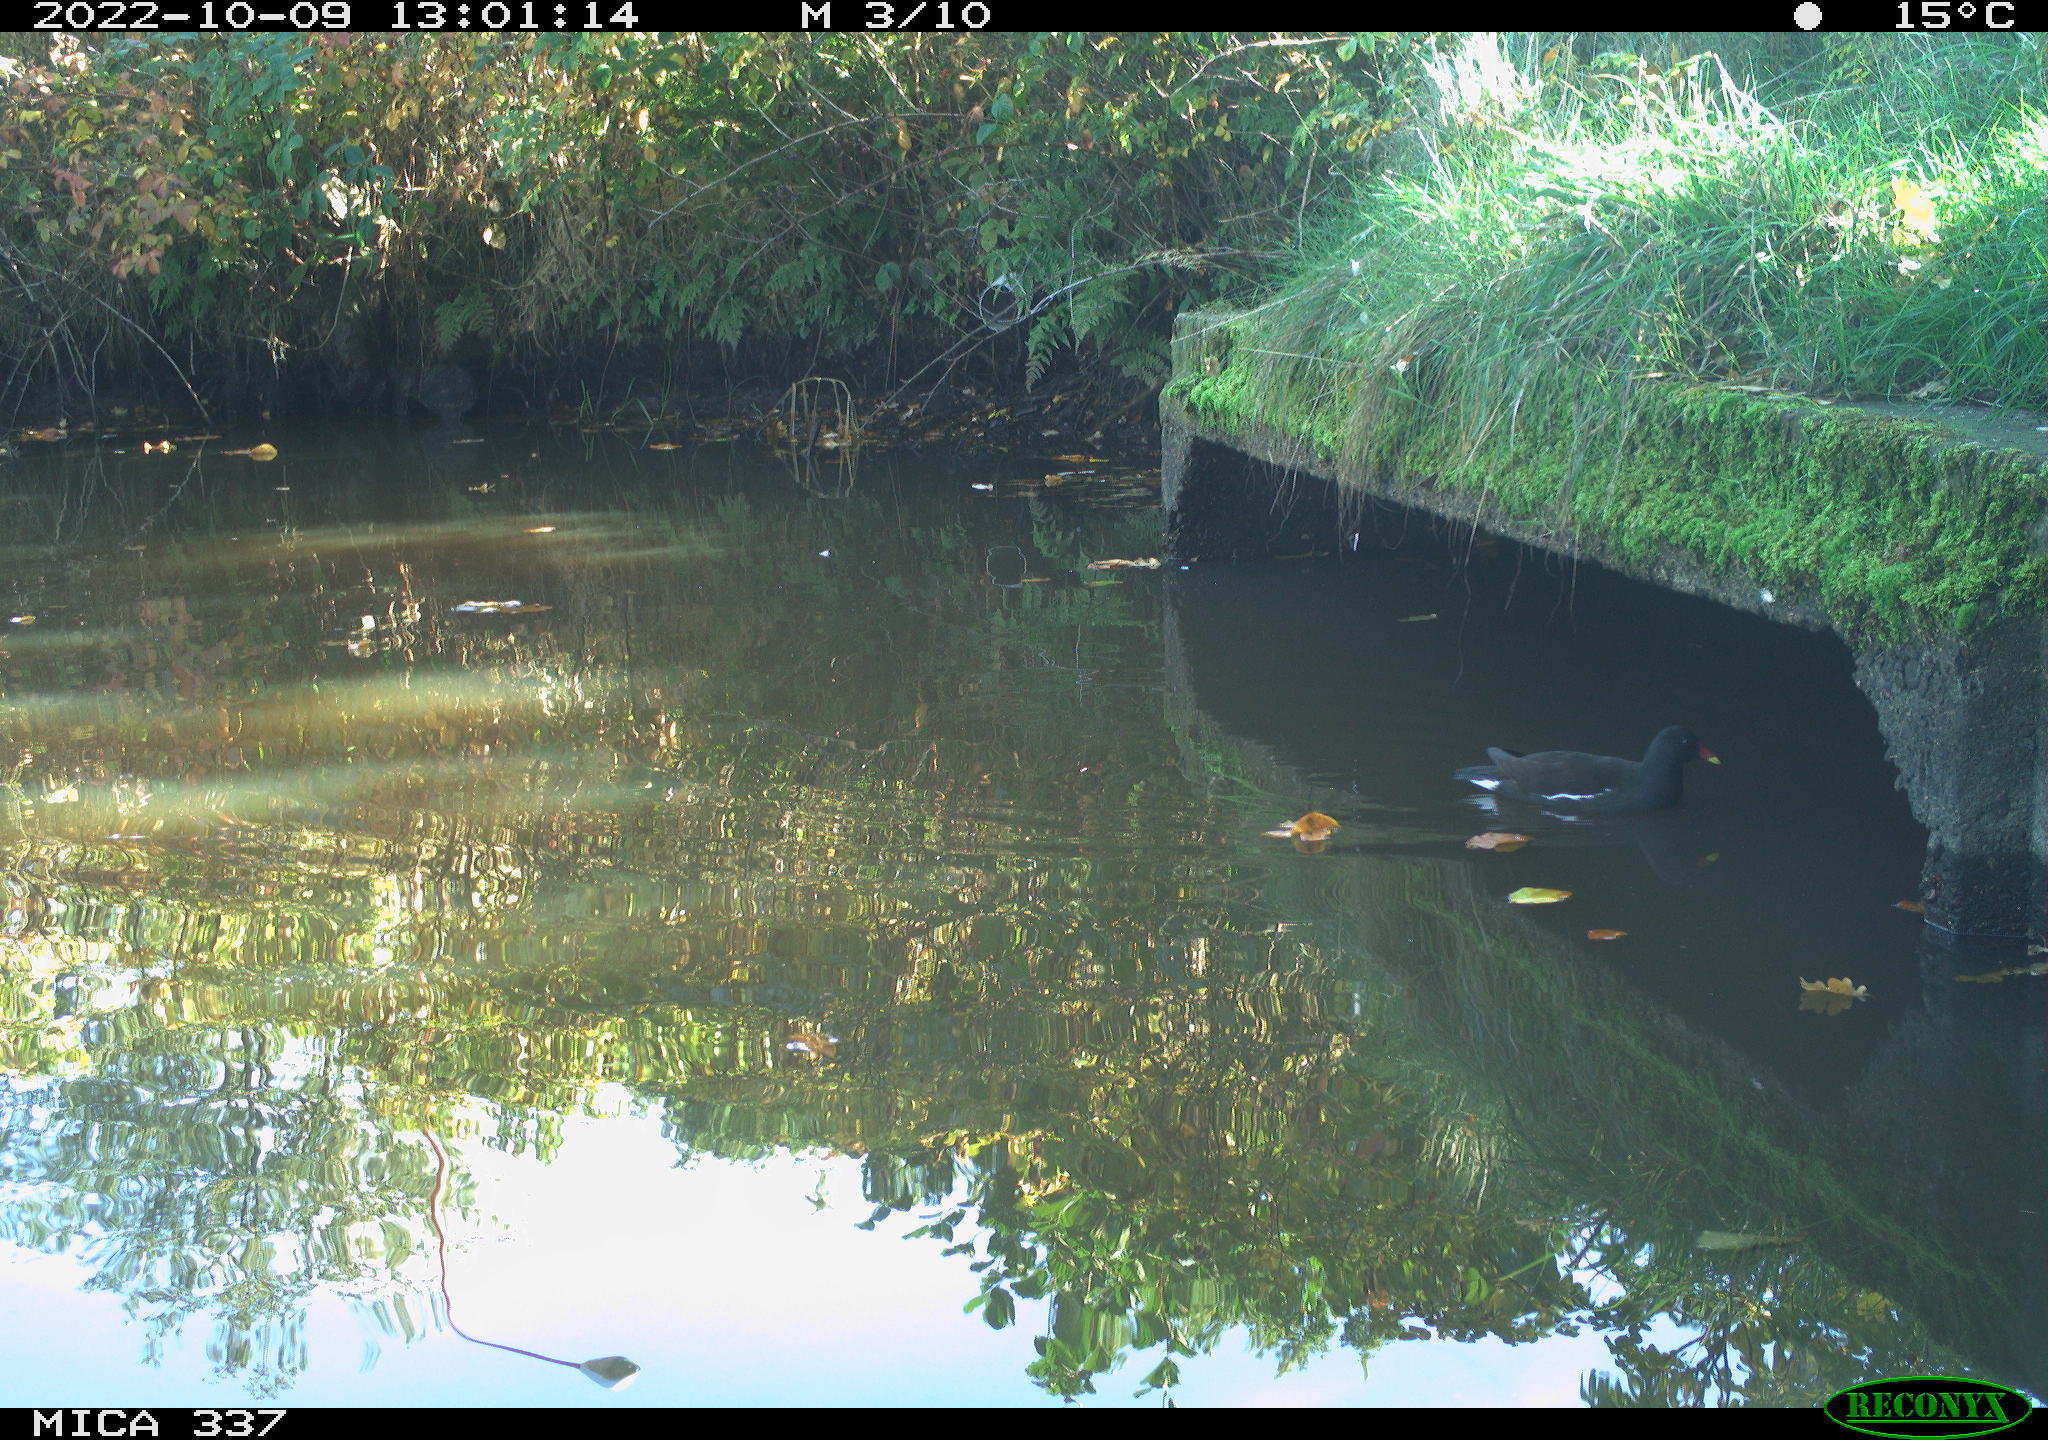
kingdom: Animalia
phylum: Chordata
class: Aves
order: Gruiformes
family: Rallidae
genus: Gallinula
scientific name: Gallinula chloropus
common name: Common moorhen
